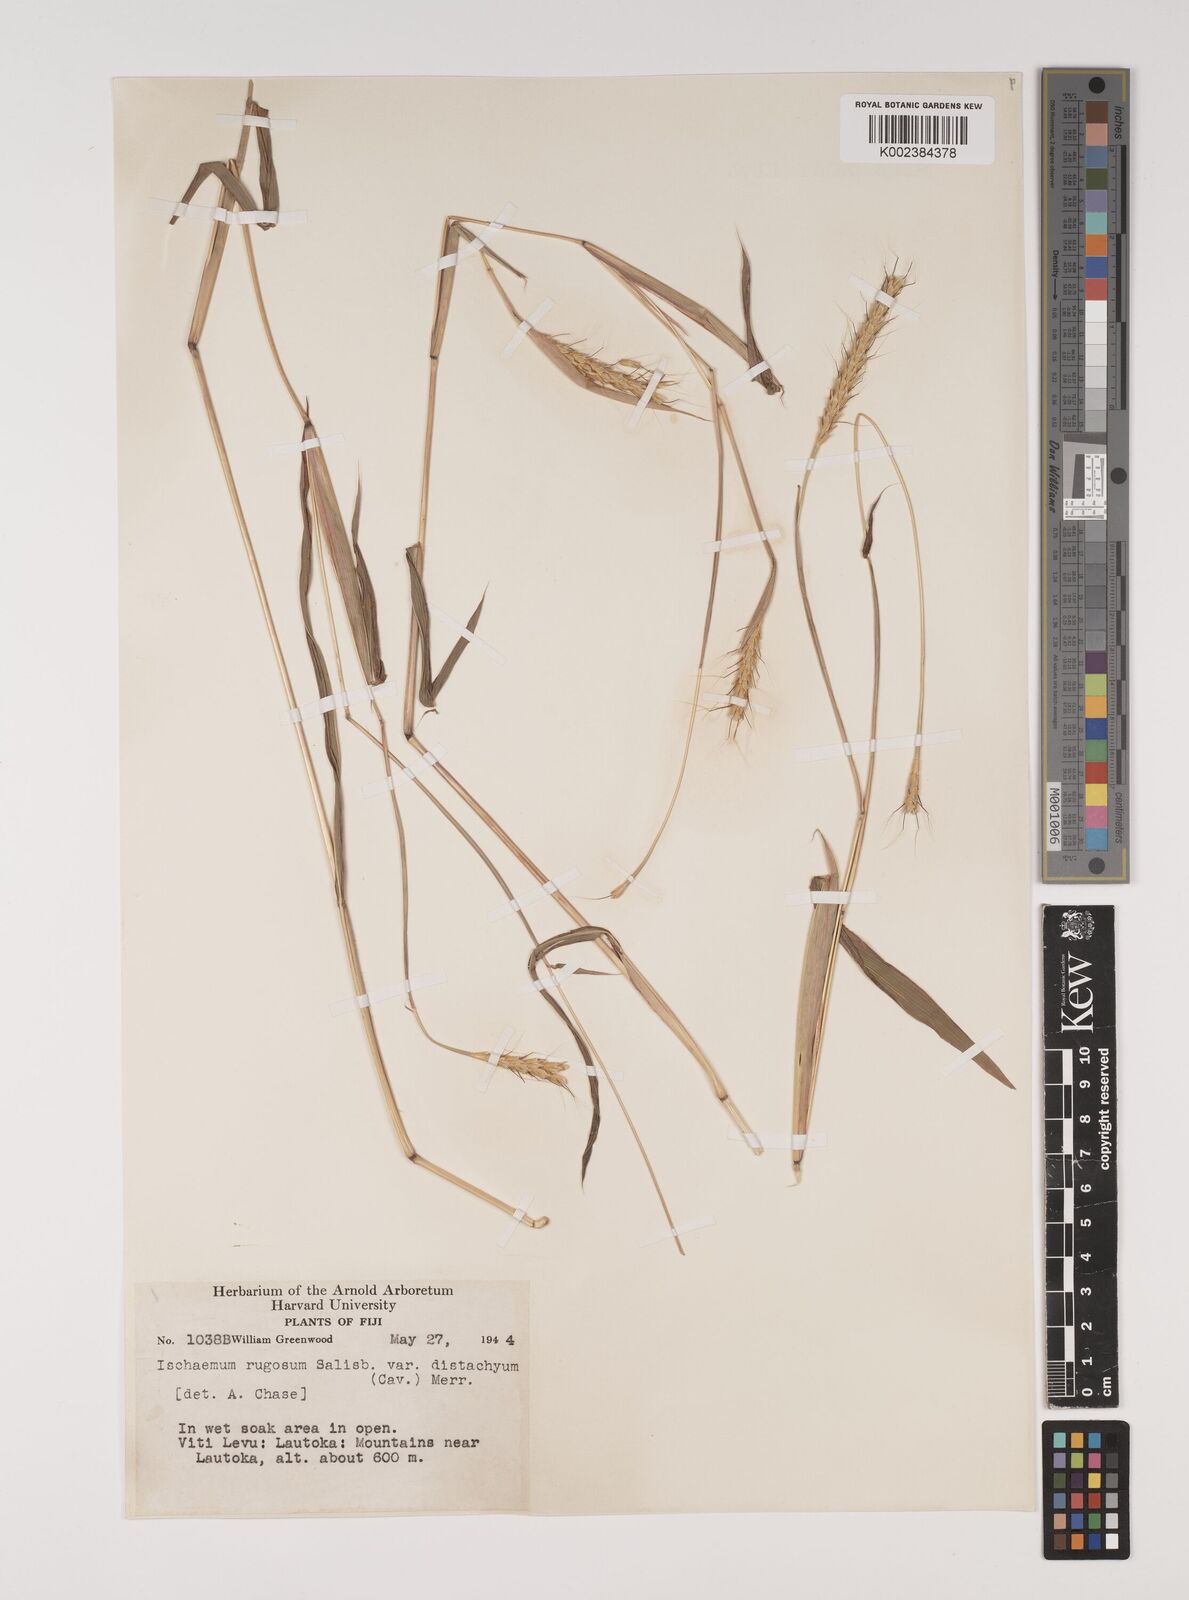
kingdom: Plantae
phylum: Tracheophyta
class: Liliopsida
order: Poales
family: Poaceae
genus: Ischaemum
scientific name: Ischaemum rugosum
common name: Saramatta grass
